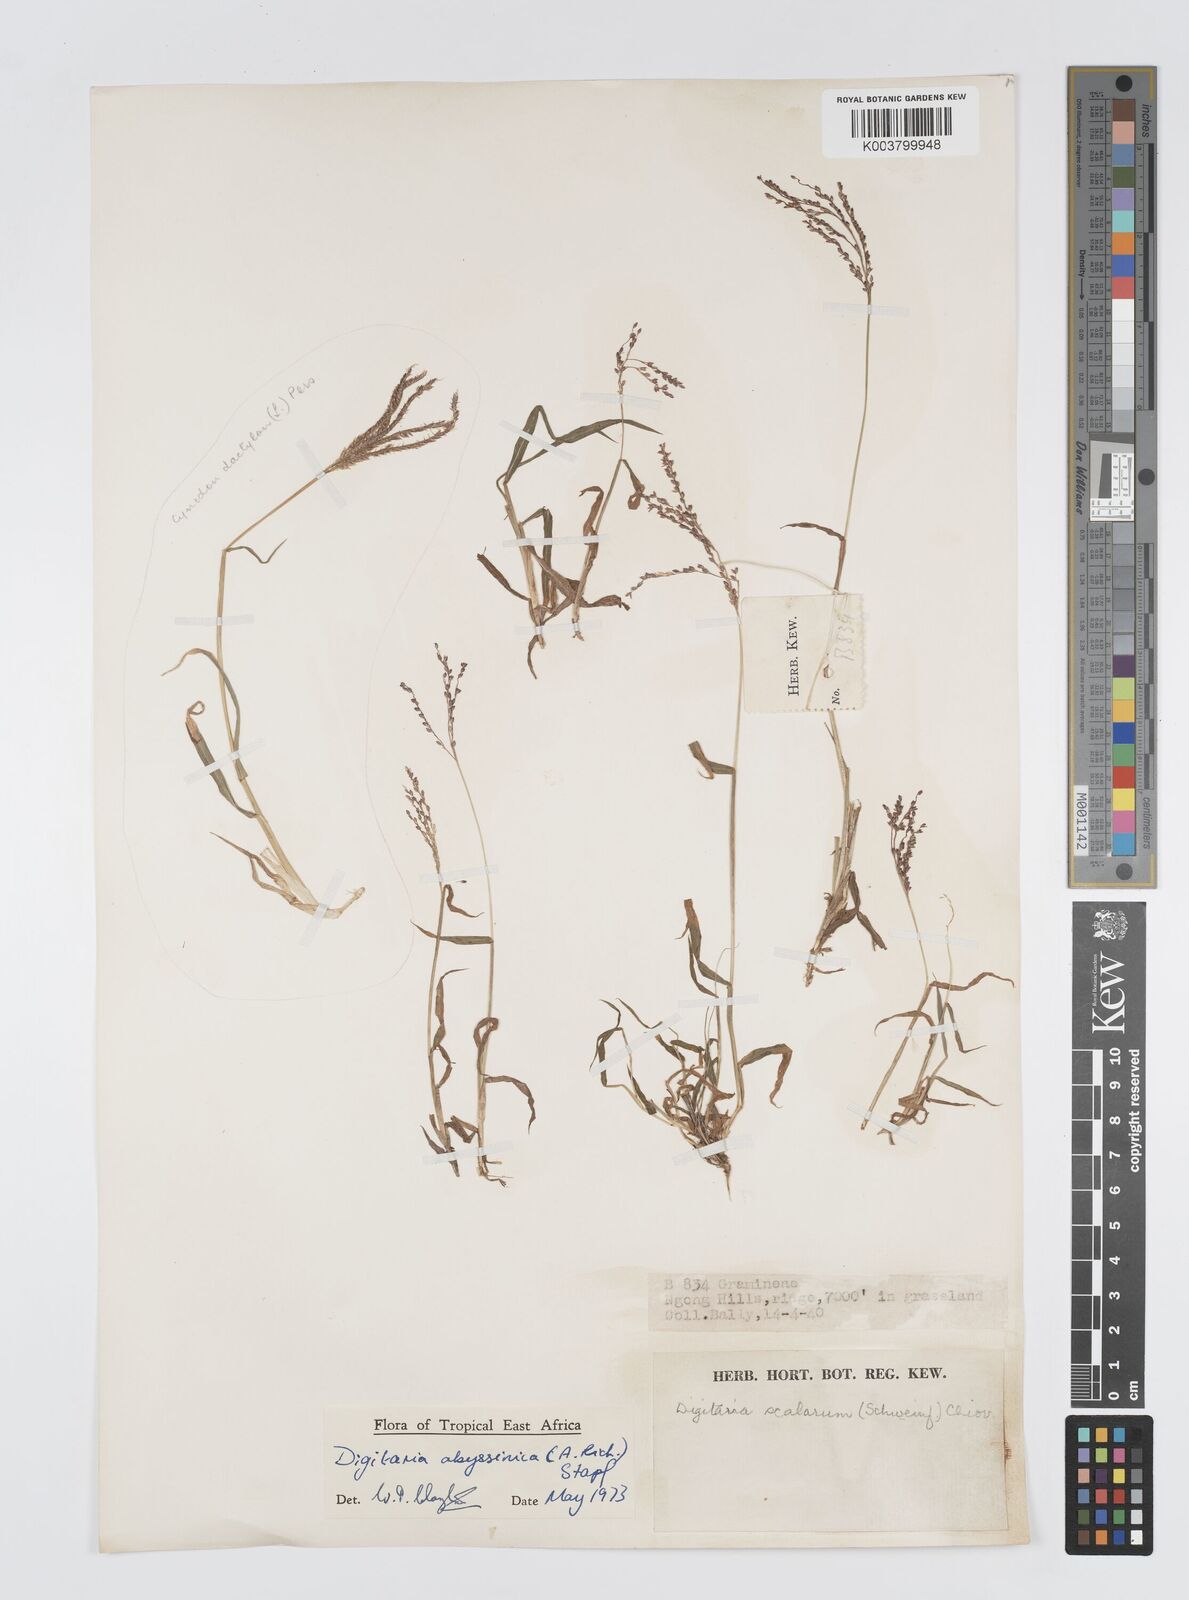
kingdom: Plantae
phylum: Tracheophyta
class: Liliopsida
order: Poales
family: Poaceae
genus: Digitaria
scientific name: Digitaria abyssinica
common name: African couchgrass
